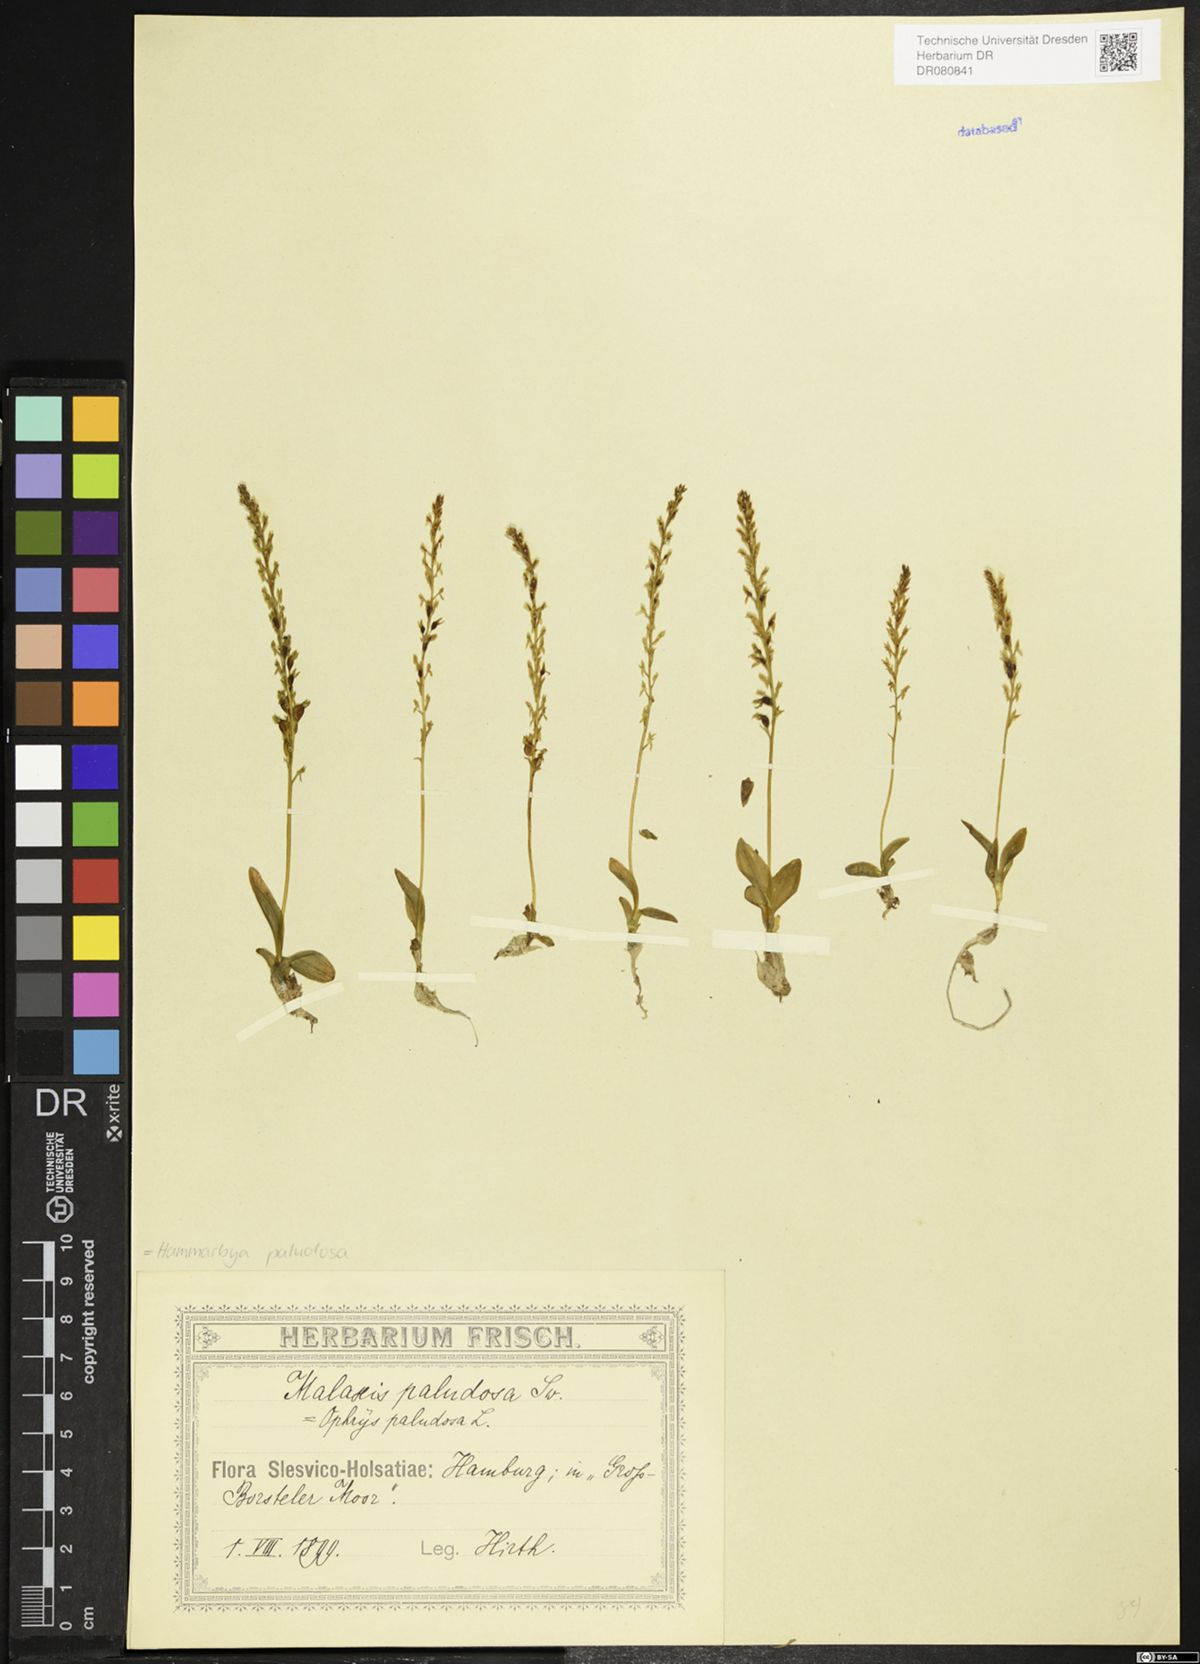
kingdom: Plantae
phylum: Tracheophyta
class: Liliopsida
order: Asparagales
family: Orchidaceae
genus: Hammarbya
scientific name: Hammarbya paludosa
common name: Bog orchid
